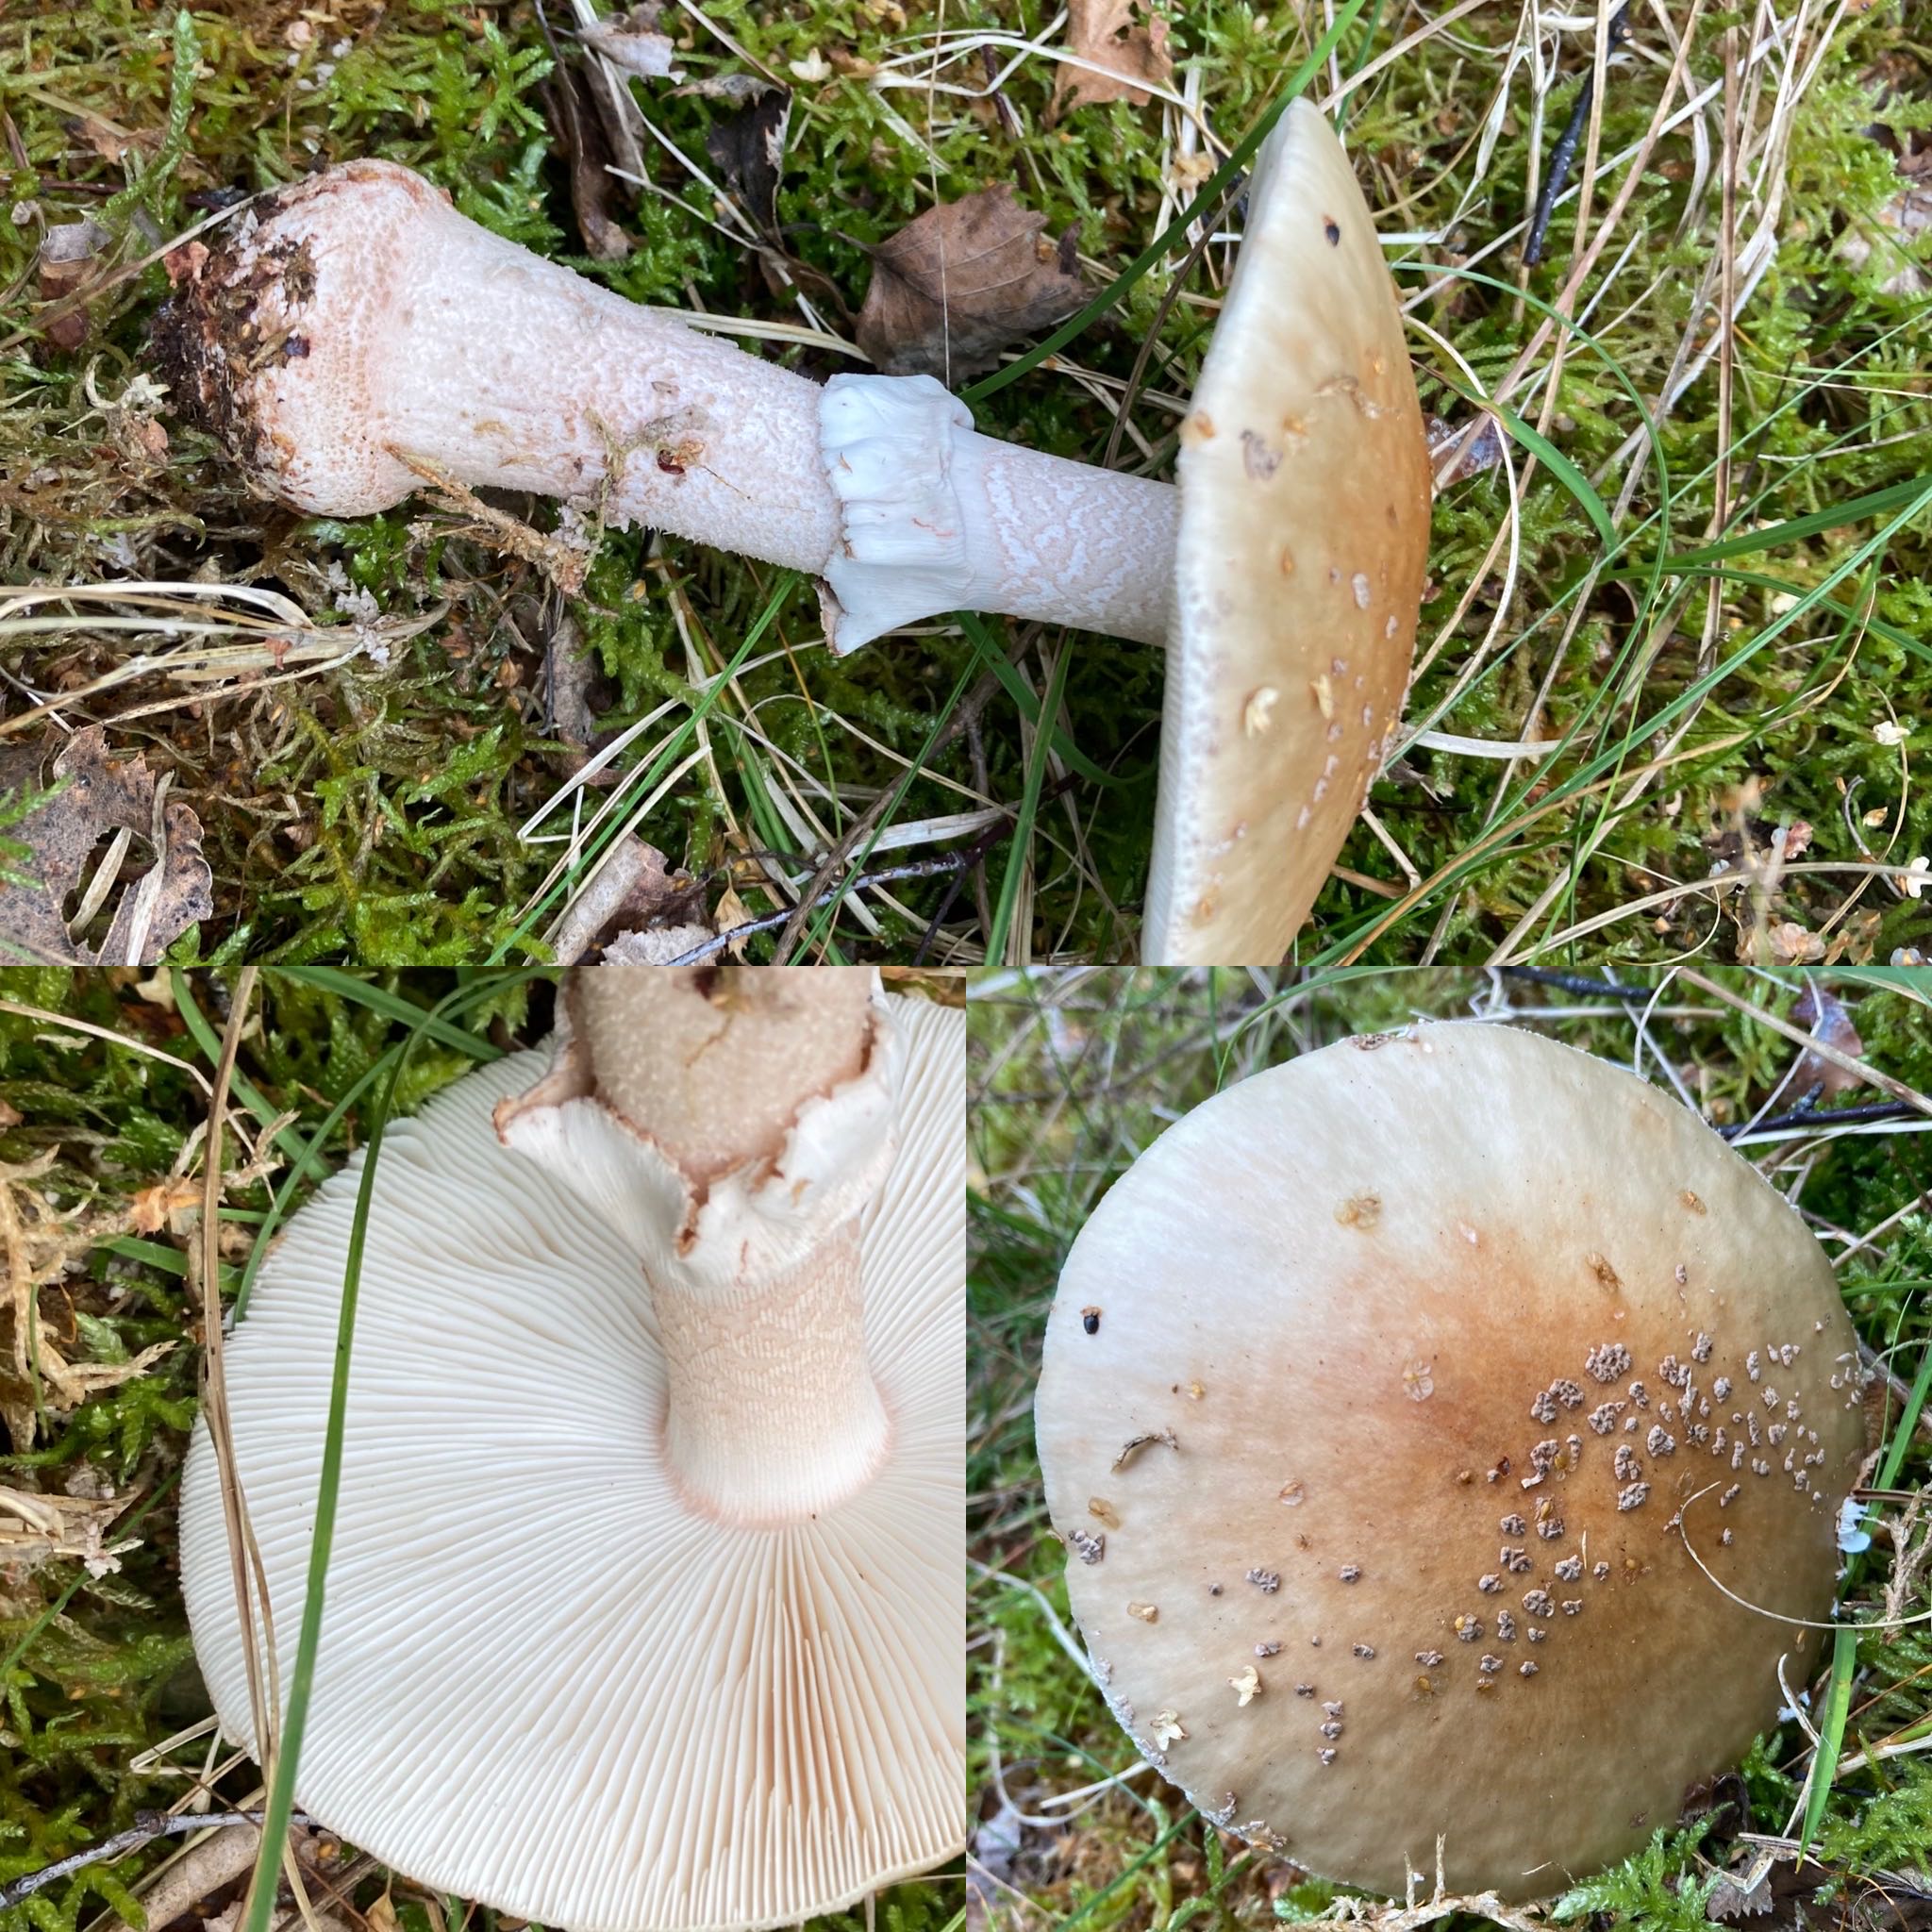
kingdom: Fungi
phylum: Basidiomycota
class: Agaricomycetes
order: Agaricales
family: Amanitaceae
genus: Amanita
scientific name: Amanita rubescens
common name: rødmende fluesvamp
